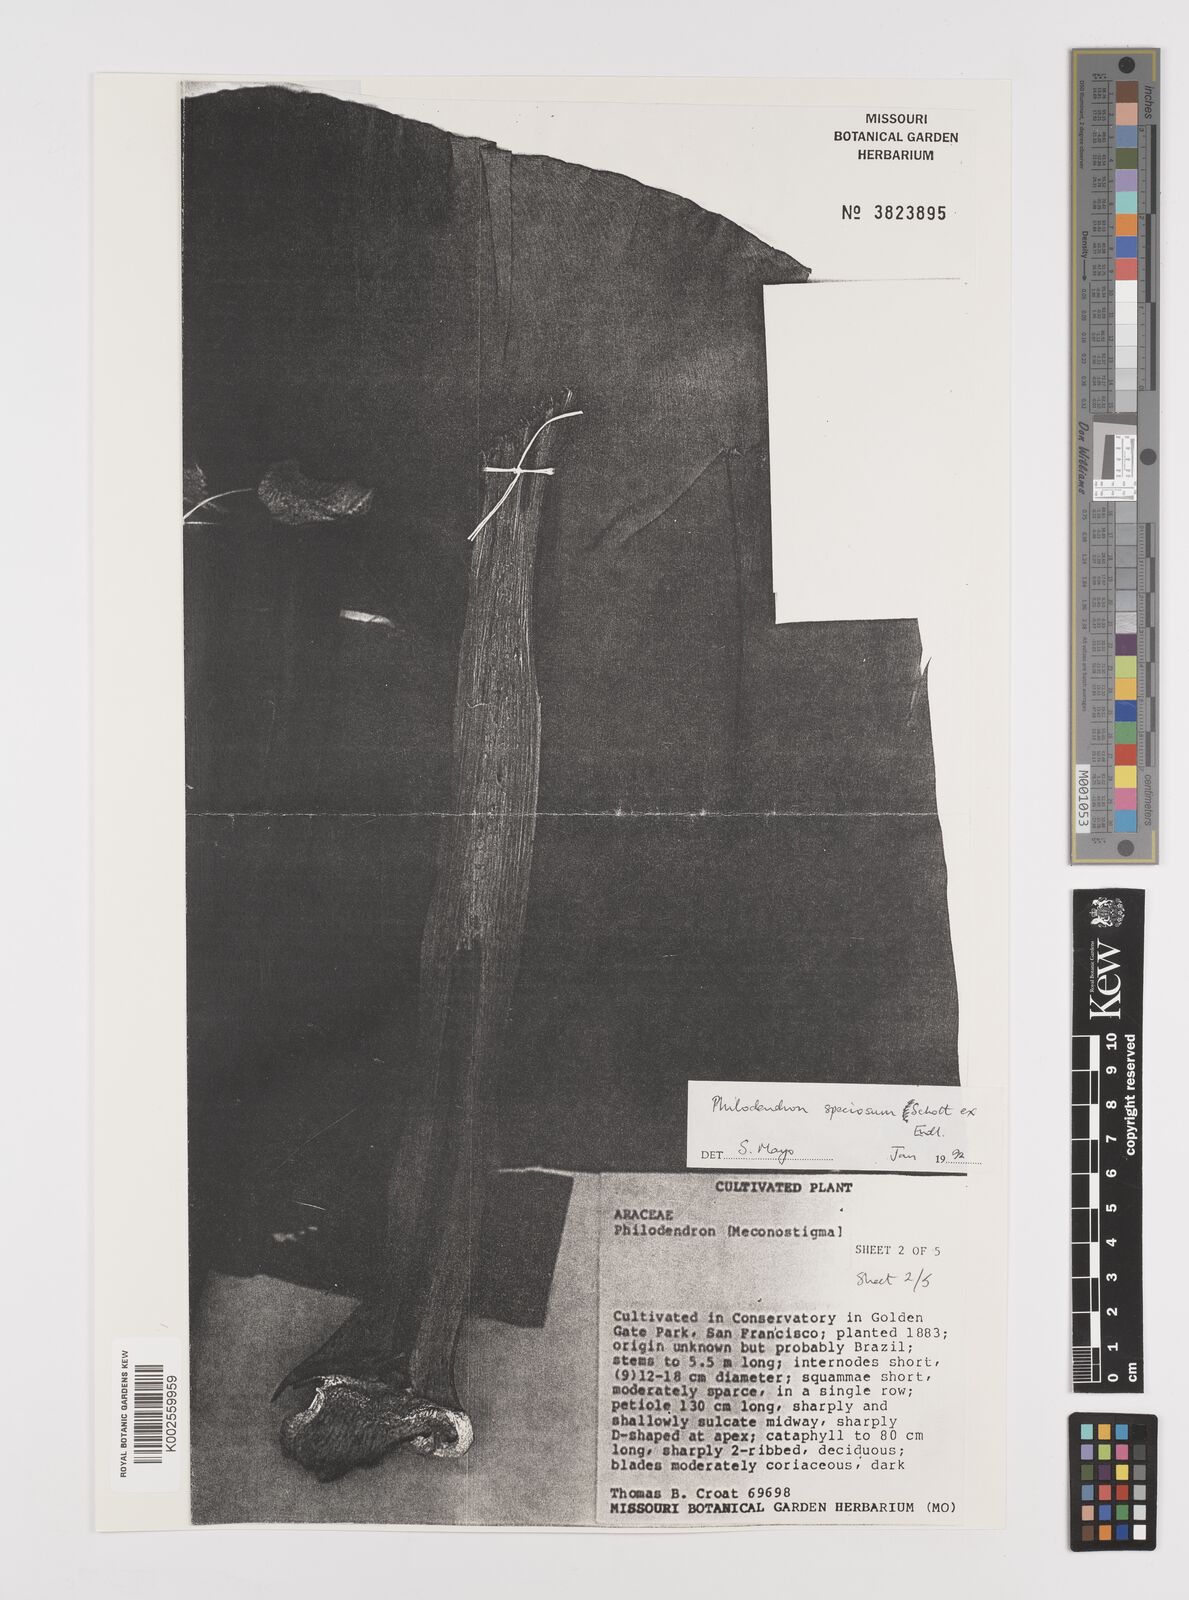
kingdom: Plantae
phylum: Tracheophyta
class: Liliopsida
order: Alismatales
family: Araceae
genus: Thaumatophyllum
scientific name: Thaumatophyllum speciosum
